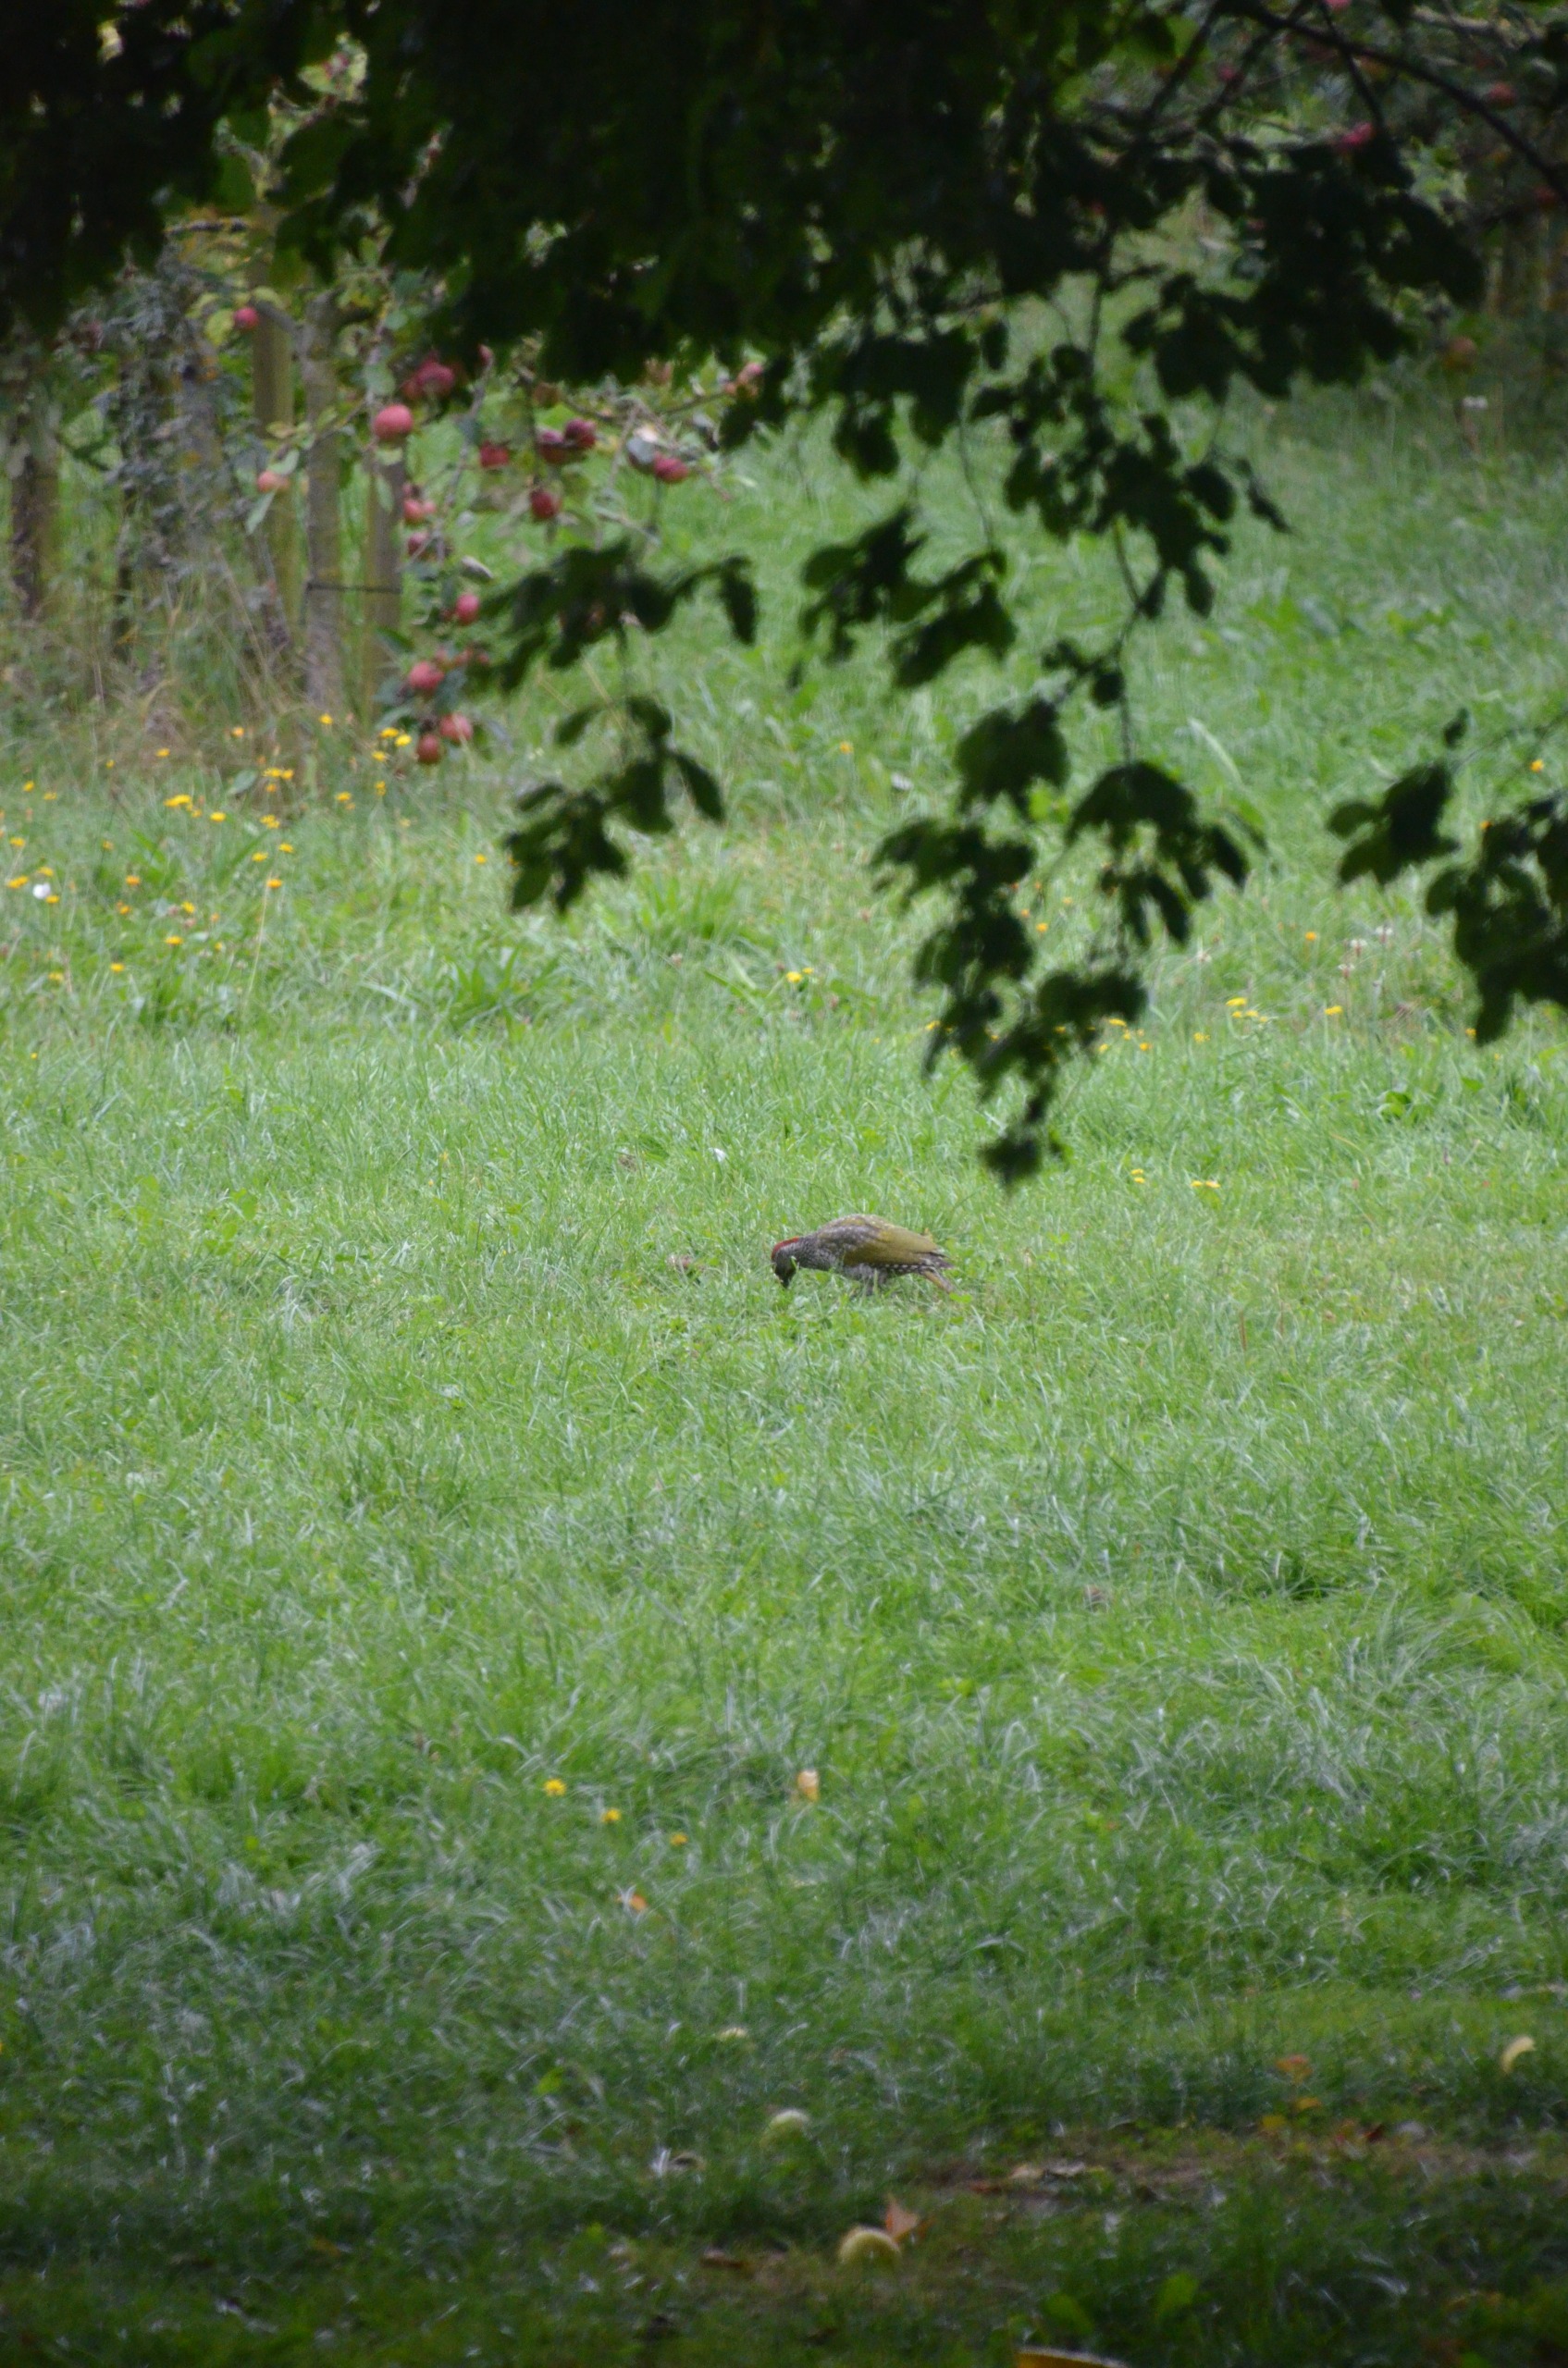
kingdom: Animalia
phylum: Chordata
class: Aves
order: Piciformes
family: Picidae
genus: Picus
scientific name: Picus viridis
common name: Grønspætte
